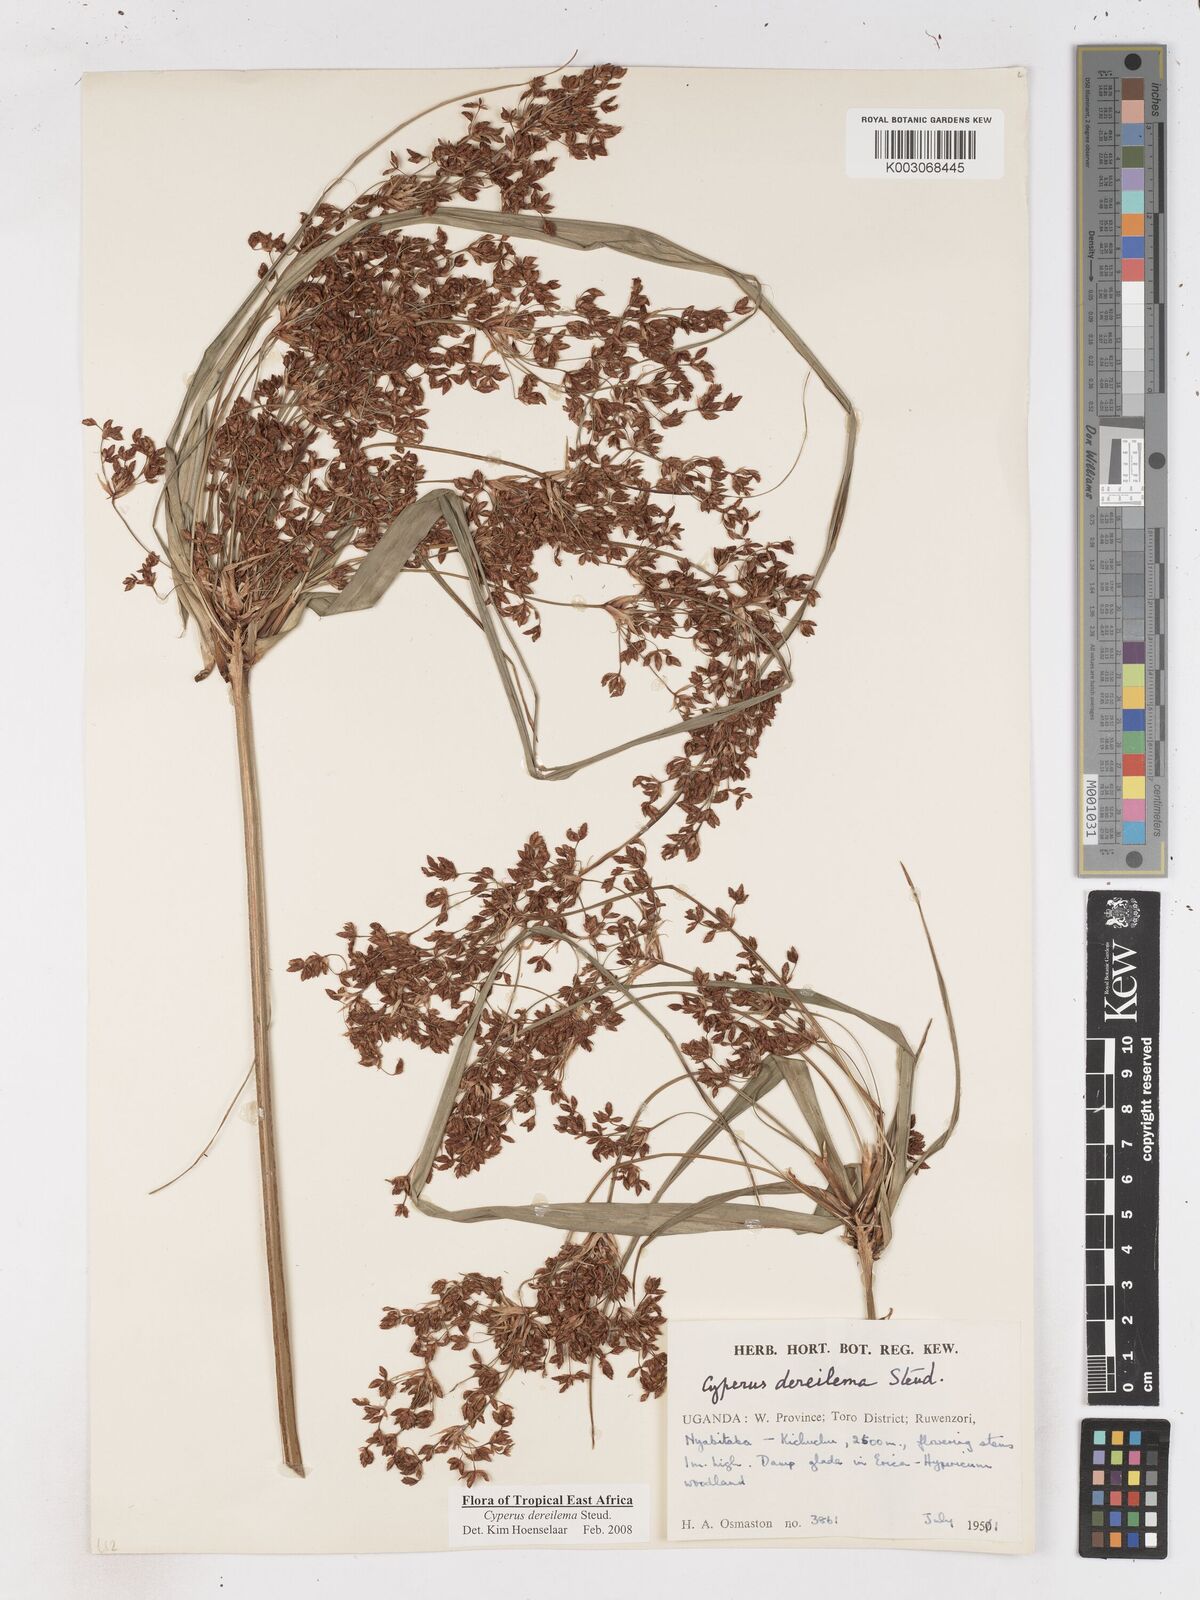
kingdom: Plantae
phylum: Tracheophyta
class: Liliopsida
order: Poales
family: Cyperaceae
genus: Cyperus
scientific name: Cyperus derreilema
